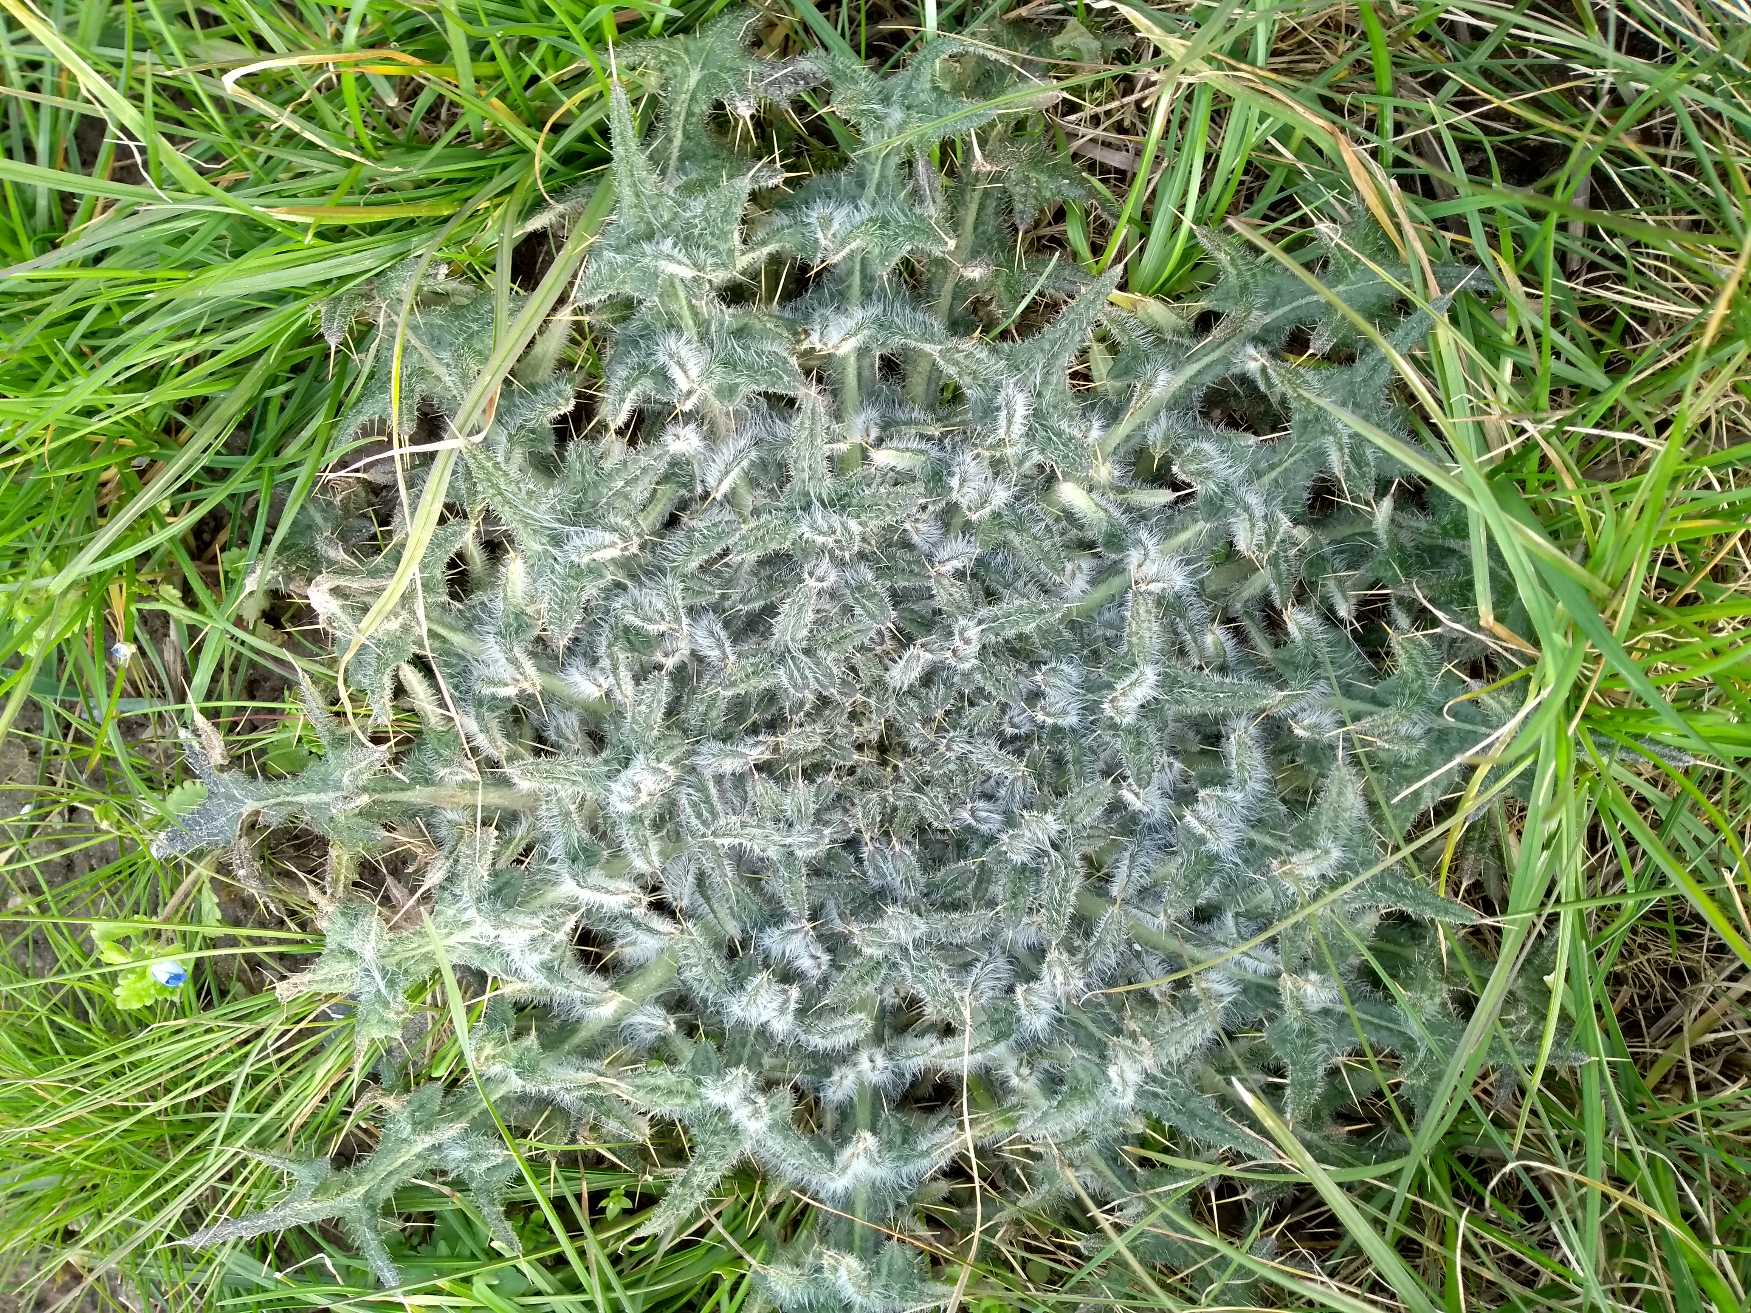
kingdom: Plantae
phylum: Tracheophyta
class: Magnoliopsida
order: Asterales
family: Asteraceae
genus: Cirsium
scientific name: Cirsium vulgare
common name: Horse-tidsel
